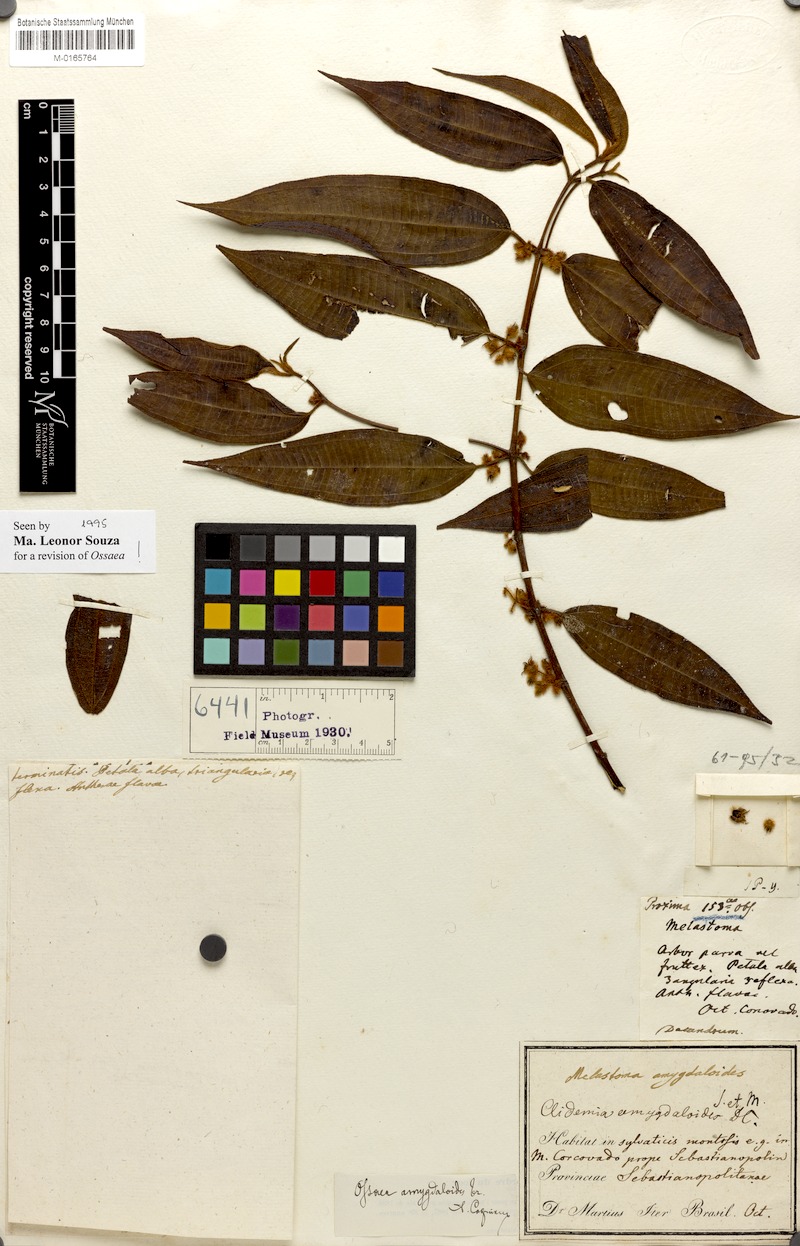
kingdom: Plantae
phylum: Tracheophyta
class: Magnoliopsida
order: Myrtales
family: Melastomataceae
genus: Miconia
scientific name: Miconia amygdaloides
